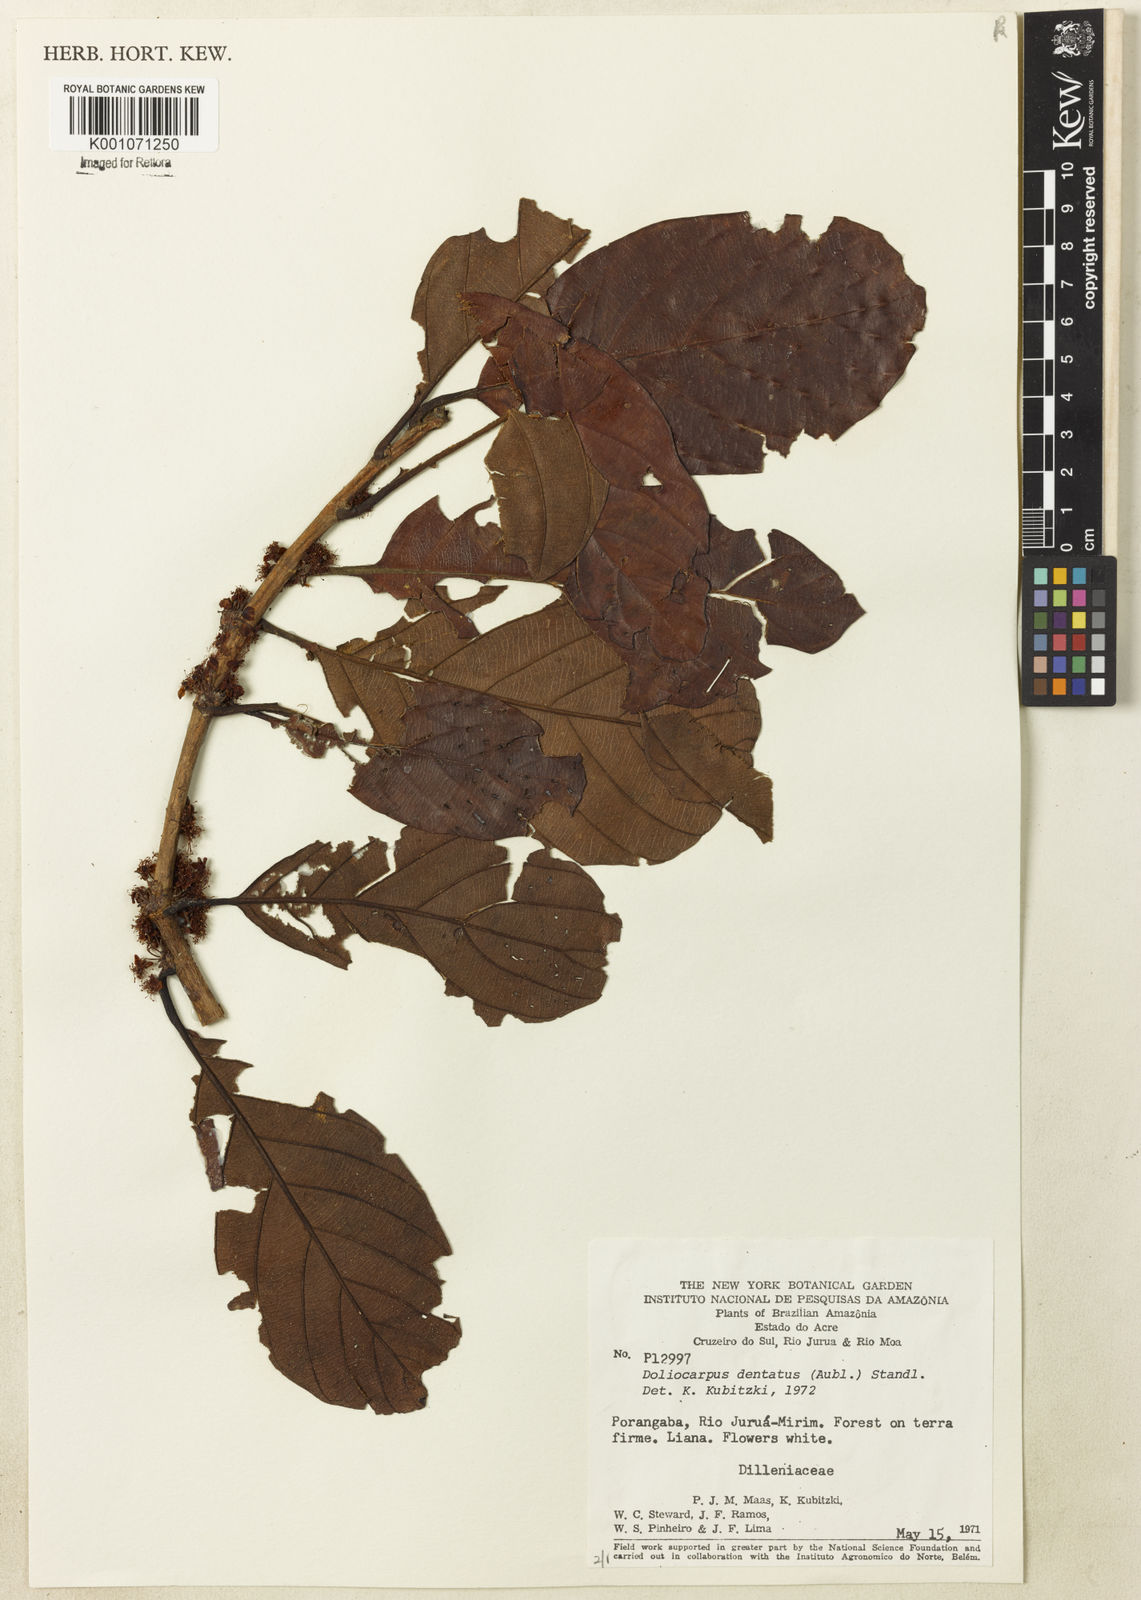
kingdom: Plantae
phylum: Tracheophyta
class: Magnoliopsida
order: Dilleniales
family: Dilleniaceae
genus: Doliocarpus
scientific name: Doliocarpus dentatus
